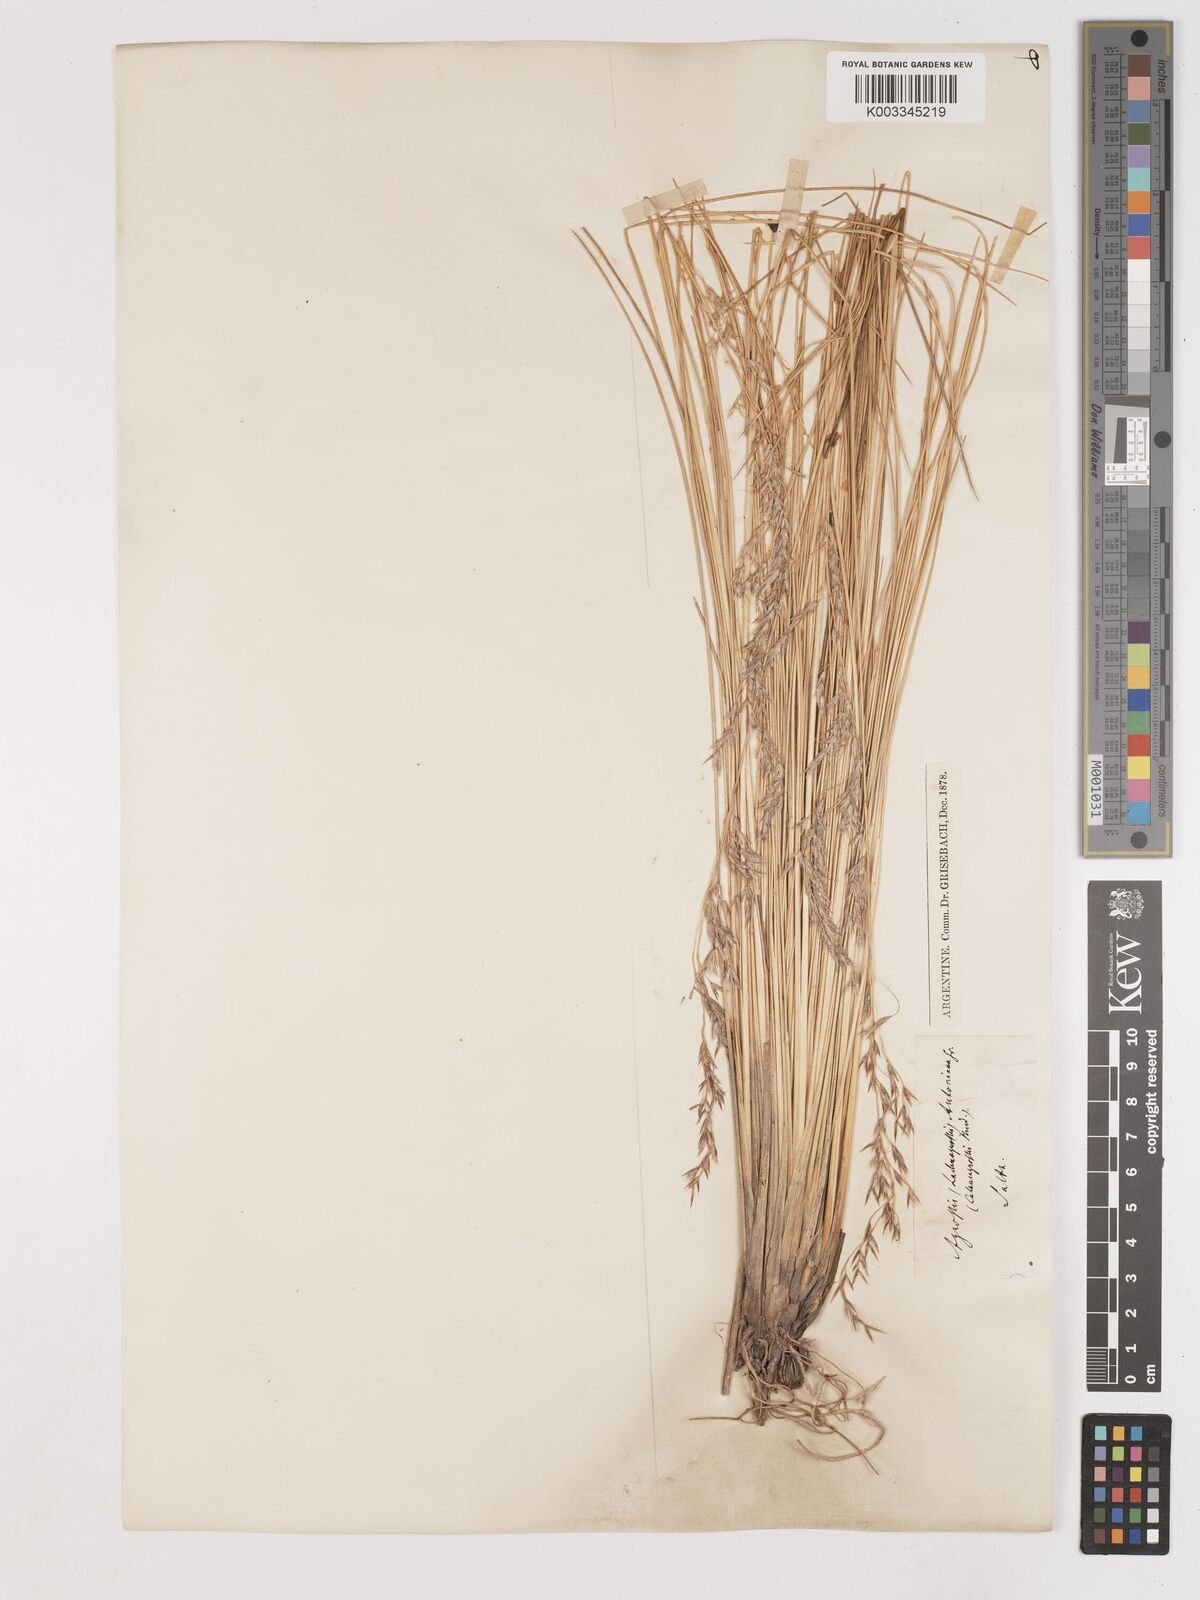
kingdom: Plantae
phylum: Tracheophyta
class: Liliopsida
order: Poales
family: Poaceae
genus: Cinnagrostis
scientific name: Cinnagrostis rigida
